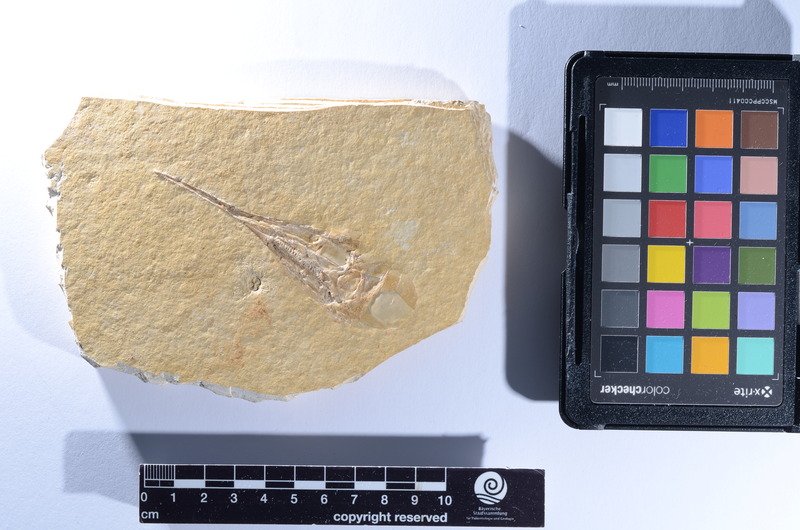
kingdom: Animalia
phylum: Chordata
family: Aspidorhynchidae
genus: Aspidorhynchus
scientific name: Aspidorhynchus
